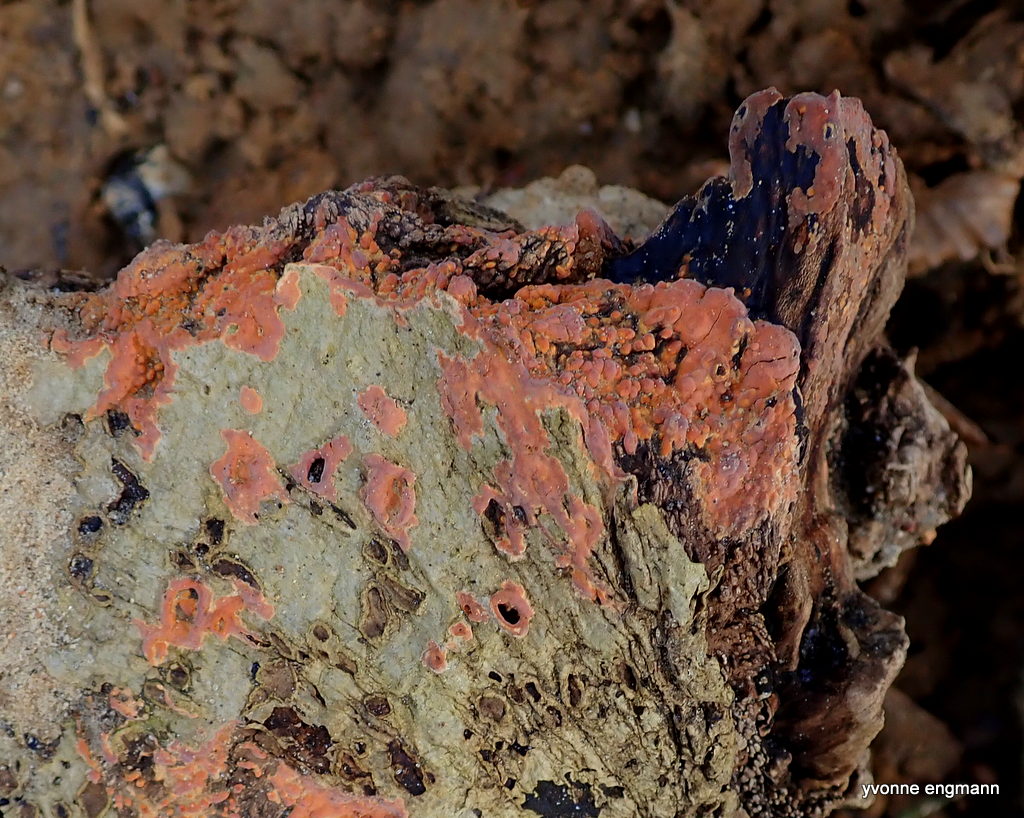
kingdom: Fungi
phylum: Basidiomycota
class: Agaricomycetes
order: Russulales
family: Peniophoraceae
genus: Peniophora
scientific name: Peniophora incarnata
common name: laksefarvet voksskind
